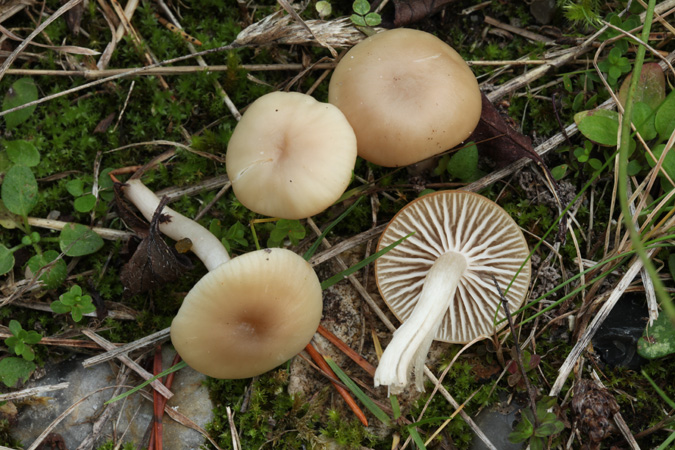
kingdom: Fungi
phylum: Basidiomycota
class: Agaricomycetes
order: Agaricales
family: Hygrophoraceae
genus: Cuphophyllus
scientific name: Cuphophyllus virgineus
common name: isabella-vokshat
